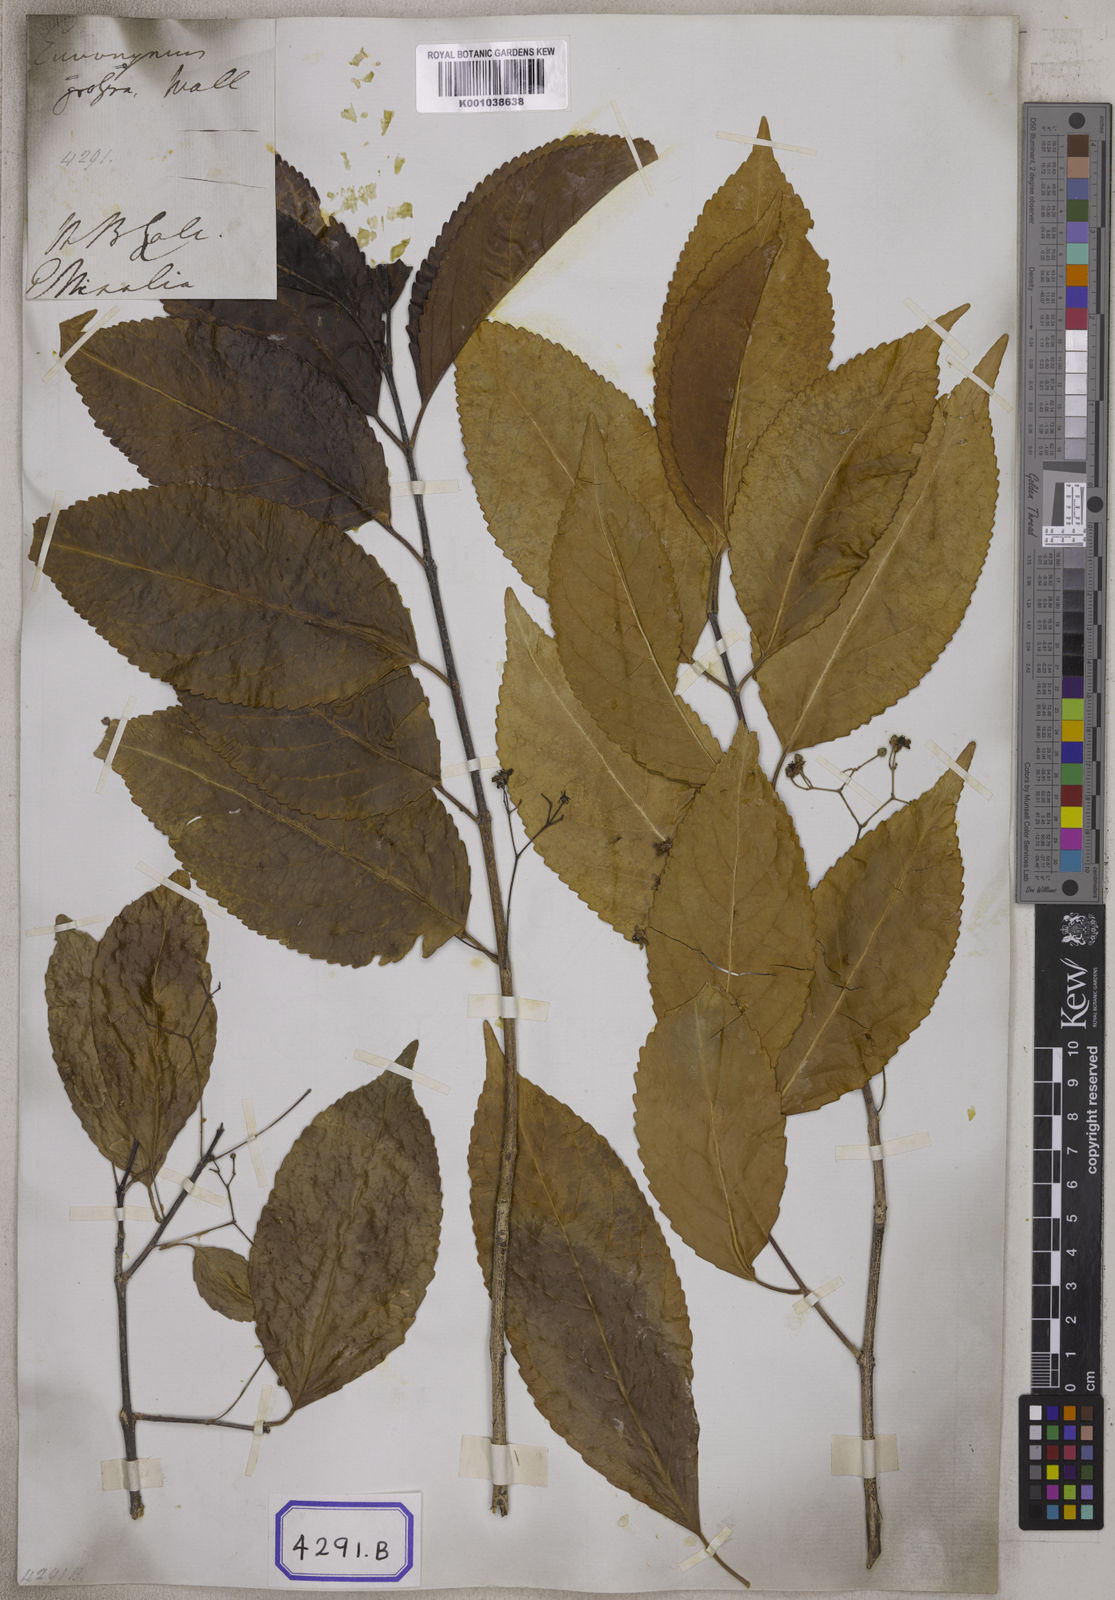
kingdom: Plantae
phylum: Tracheophyta
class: Magnoliopsida
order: Celastrales
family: Celastraceae
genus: Elaeodendron
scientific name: Elaeodendron glaucum
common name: Ceylon-tea
